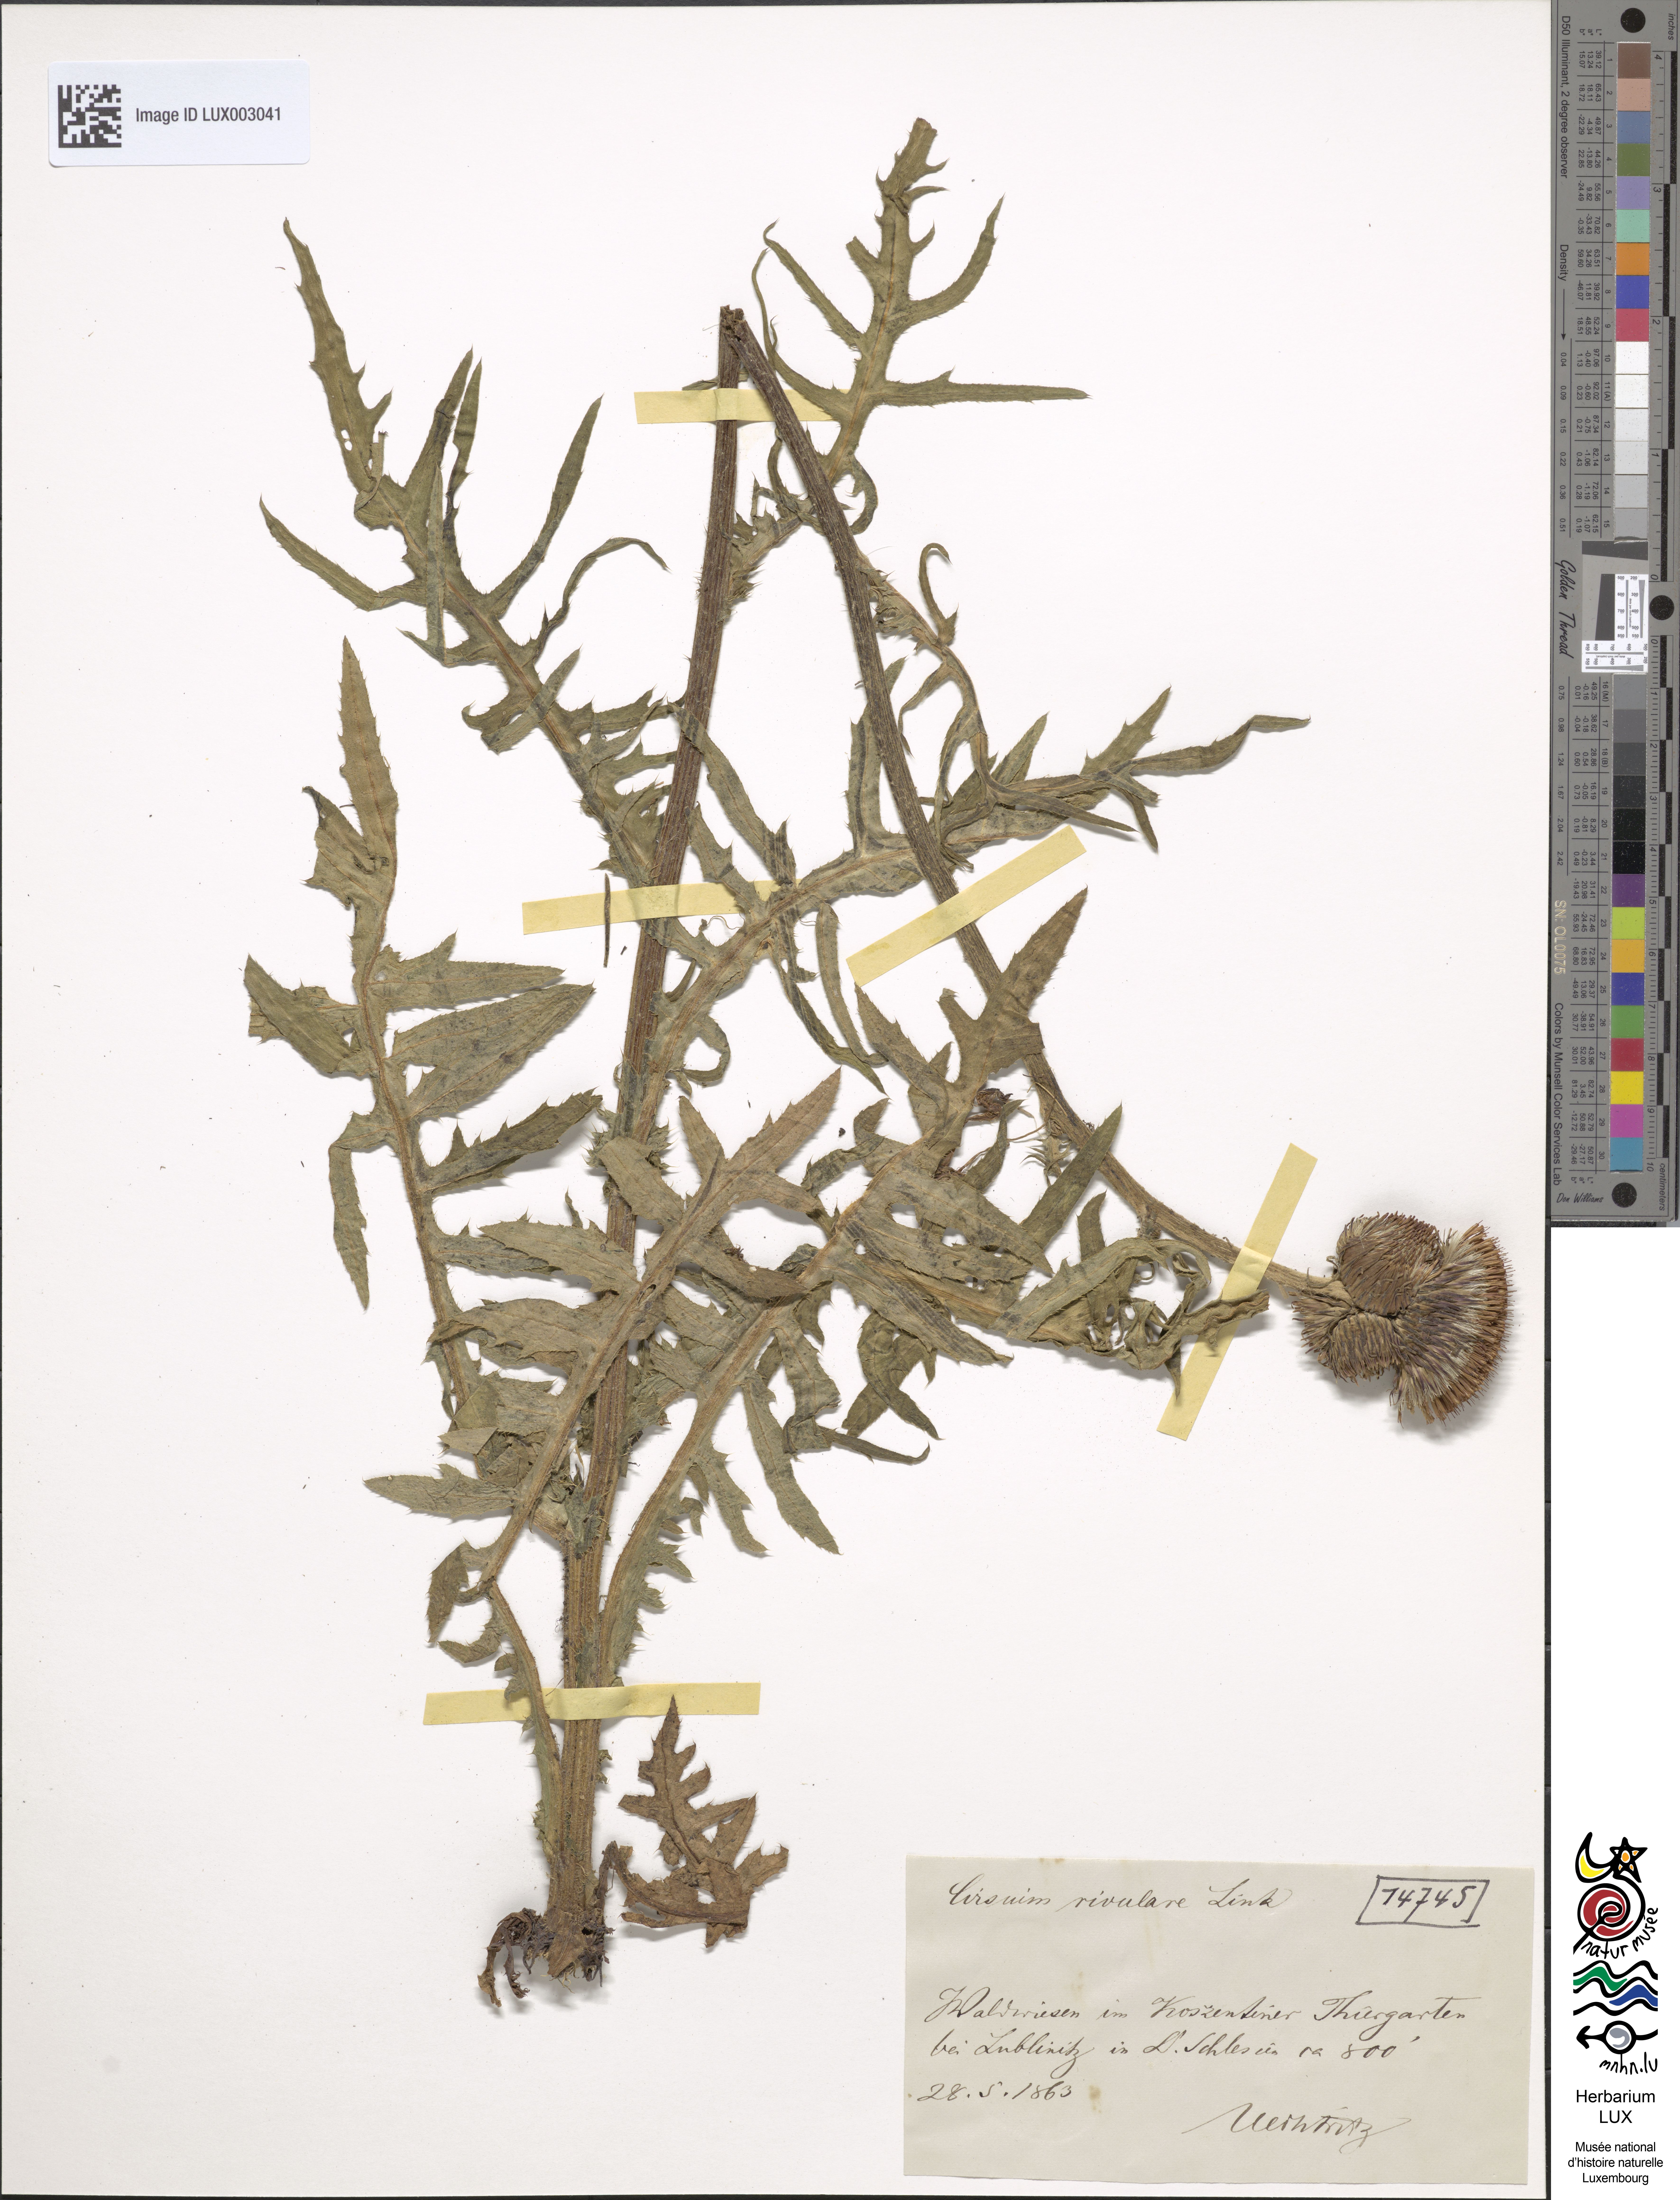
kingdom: Plantae
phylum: Tracheophyta
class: Magnoliopsida
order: Asterales
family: Asteraceae
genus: Cirsium
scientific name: Cirsium rivulare
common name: Brook thistle
